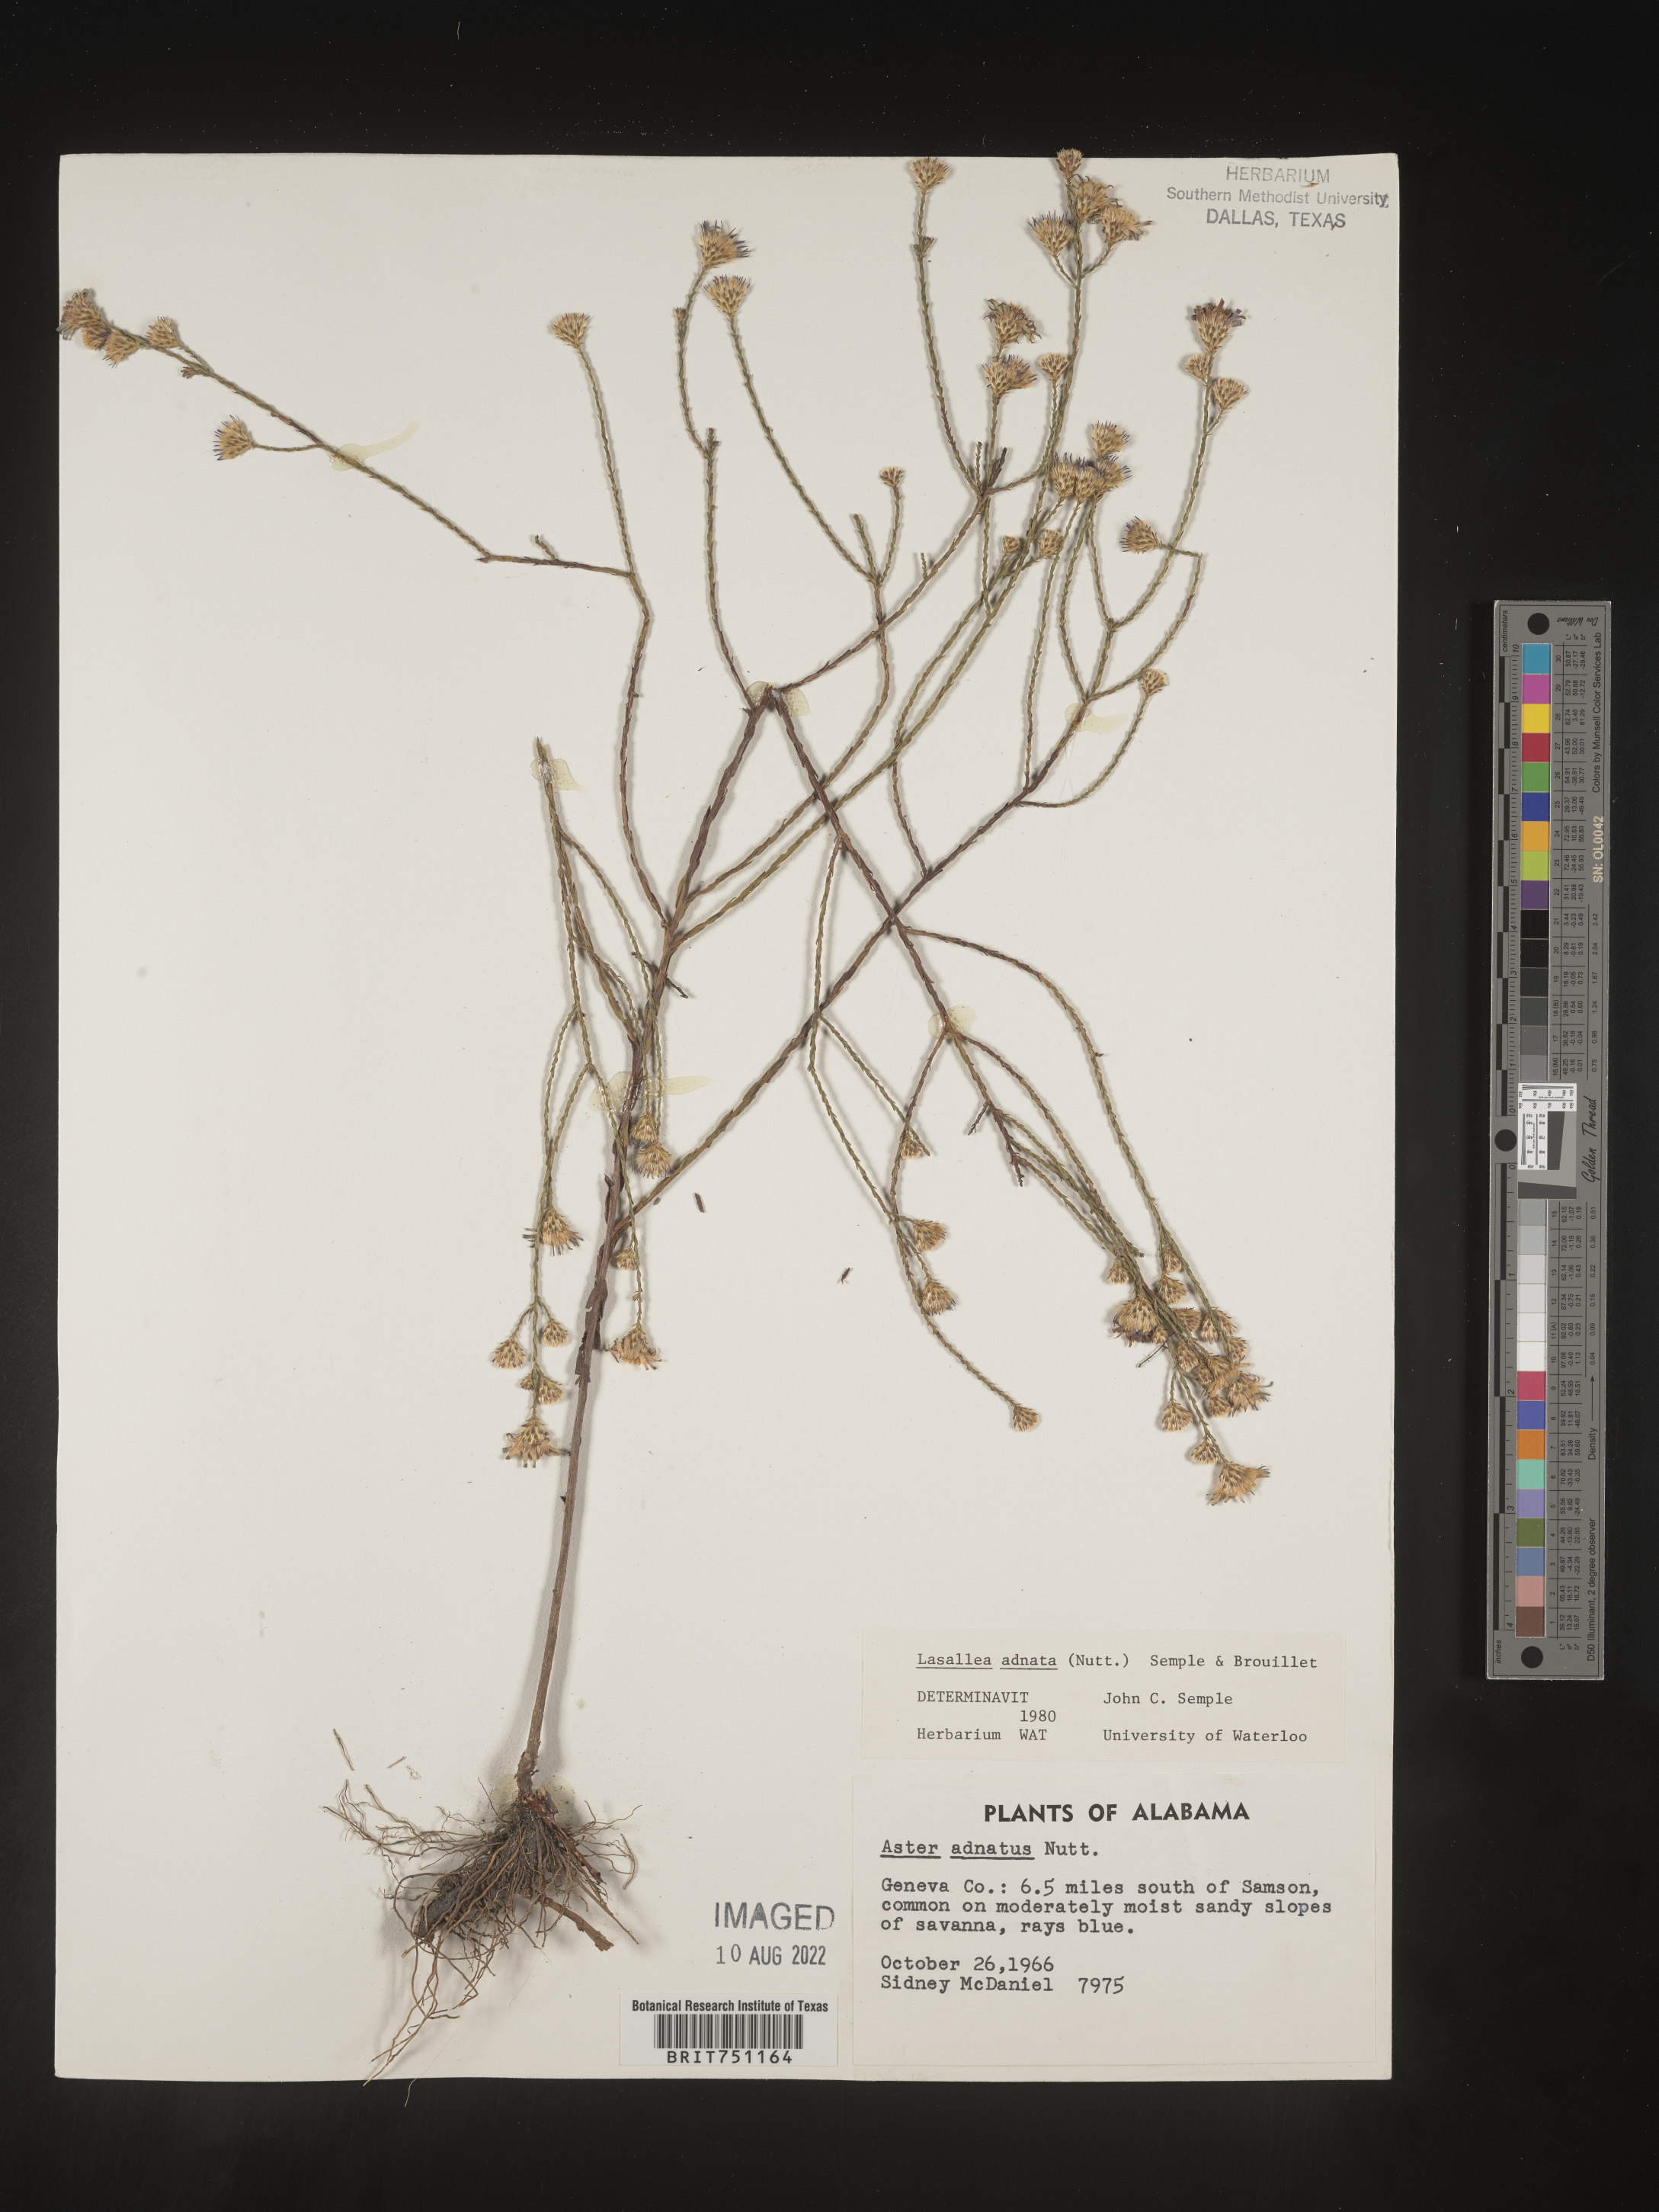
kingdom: Plantae
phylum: Tracheophyta
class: Magnoliopsida
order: Asterales
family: Asteraceae
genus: Symphyotrichum
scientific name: Symphyotrichum adnatum
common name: Scale-leaf aster
